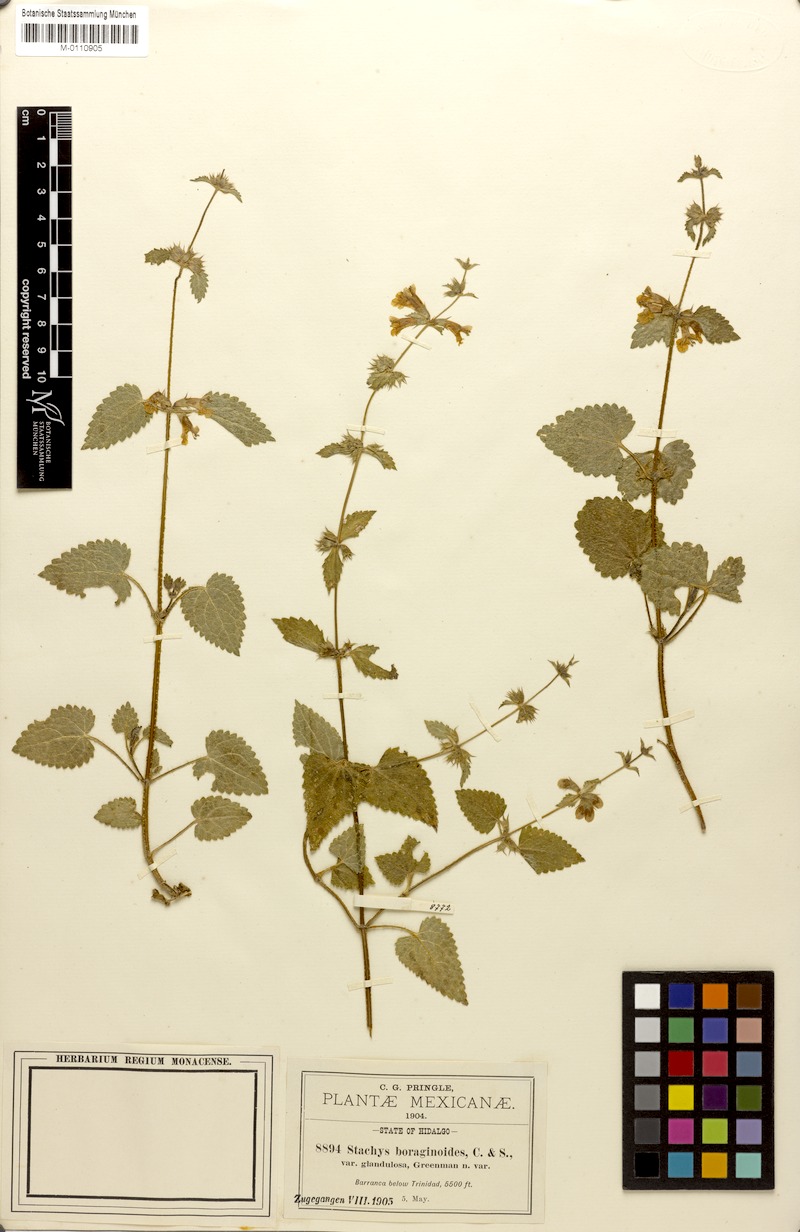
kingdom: Plantae
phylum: Tracheophyta
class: Magnoliopsida
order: Lamiales
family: Lamiaceae
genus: Stachys
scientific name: Stachys boraginoides
